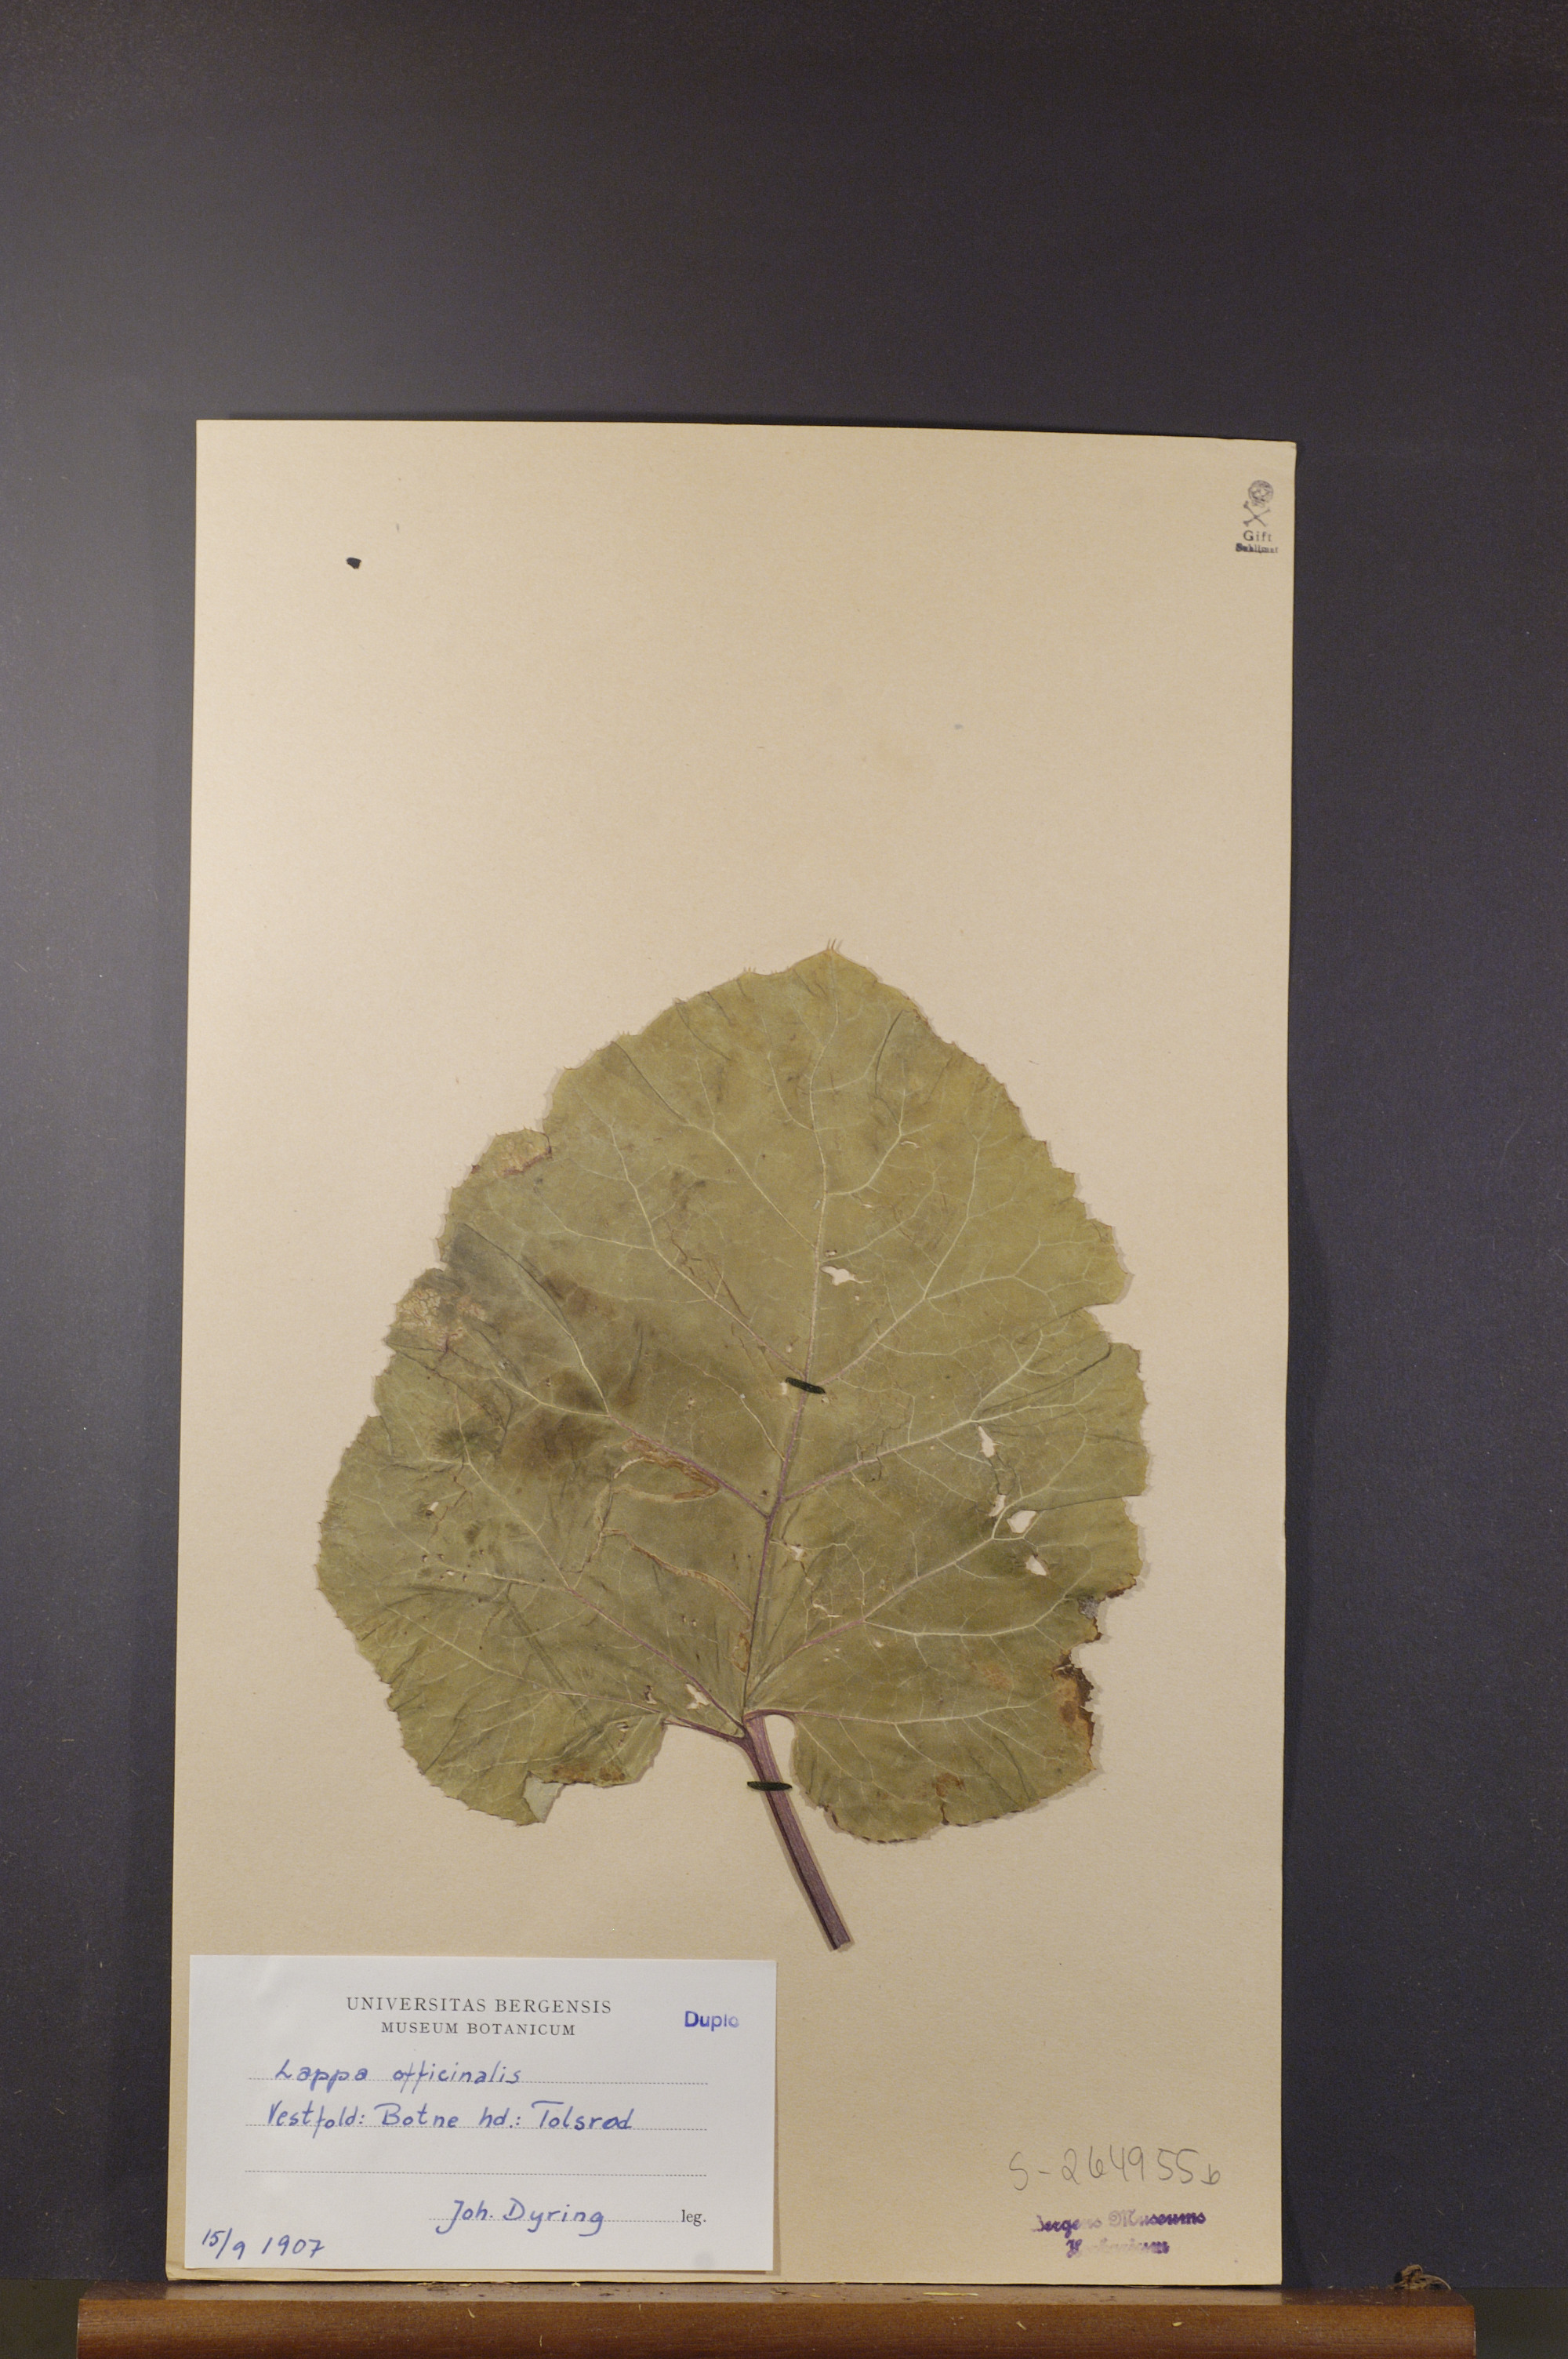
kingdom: Plantae
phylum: Tracheophyta
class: Magnoliopsida
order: Asterales
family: Asteraceae
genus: Arctium
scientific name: Arctium lappa
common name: Greater burdock
